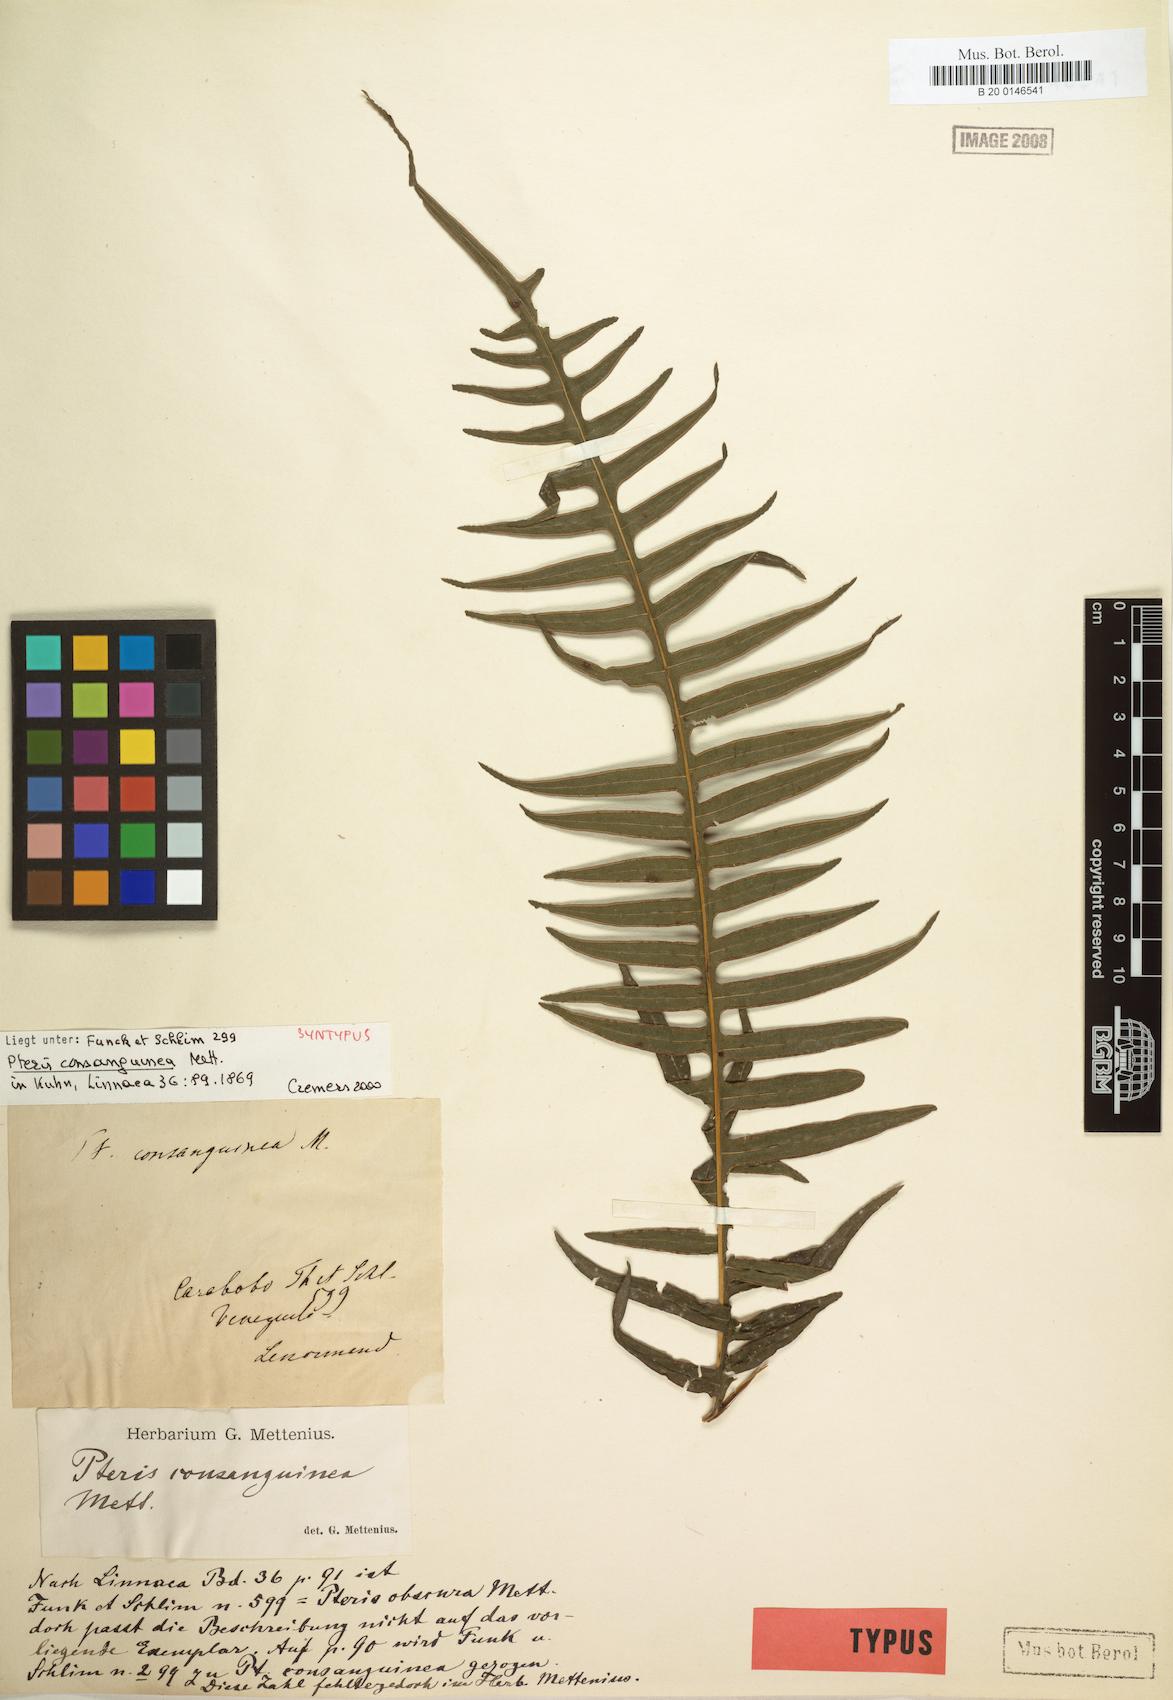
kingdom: Plantae
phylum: Tracheophyta
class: Polypodiopsida
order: Polypodiales
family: Pteridaceae
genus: Pteris
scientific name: Pteris consanguinea
